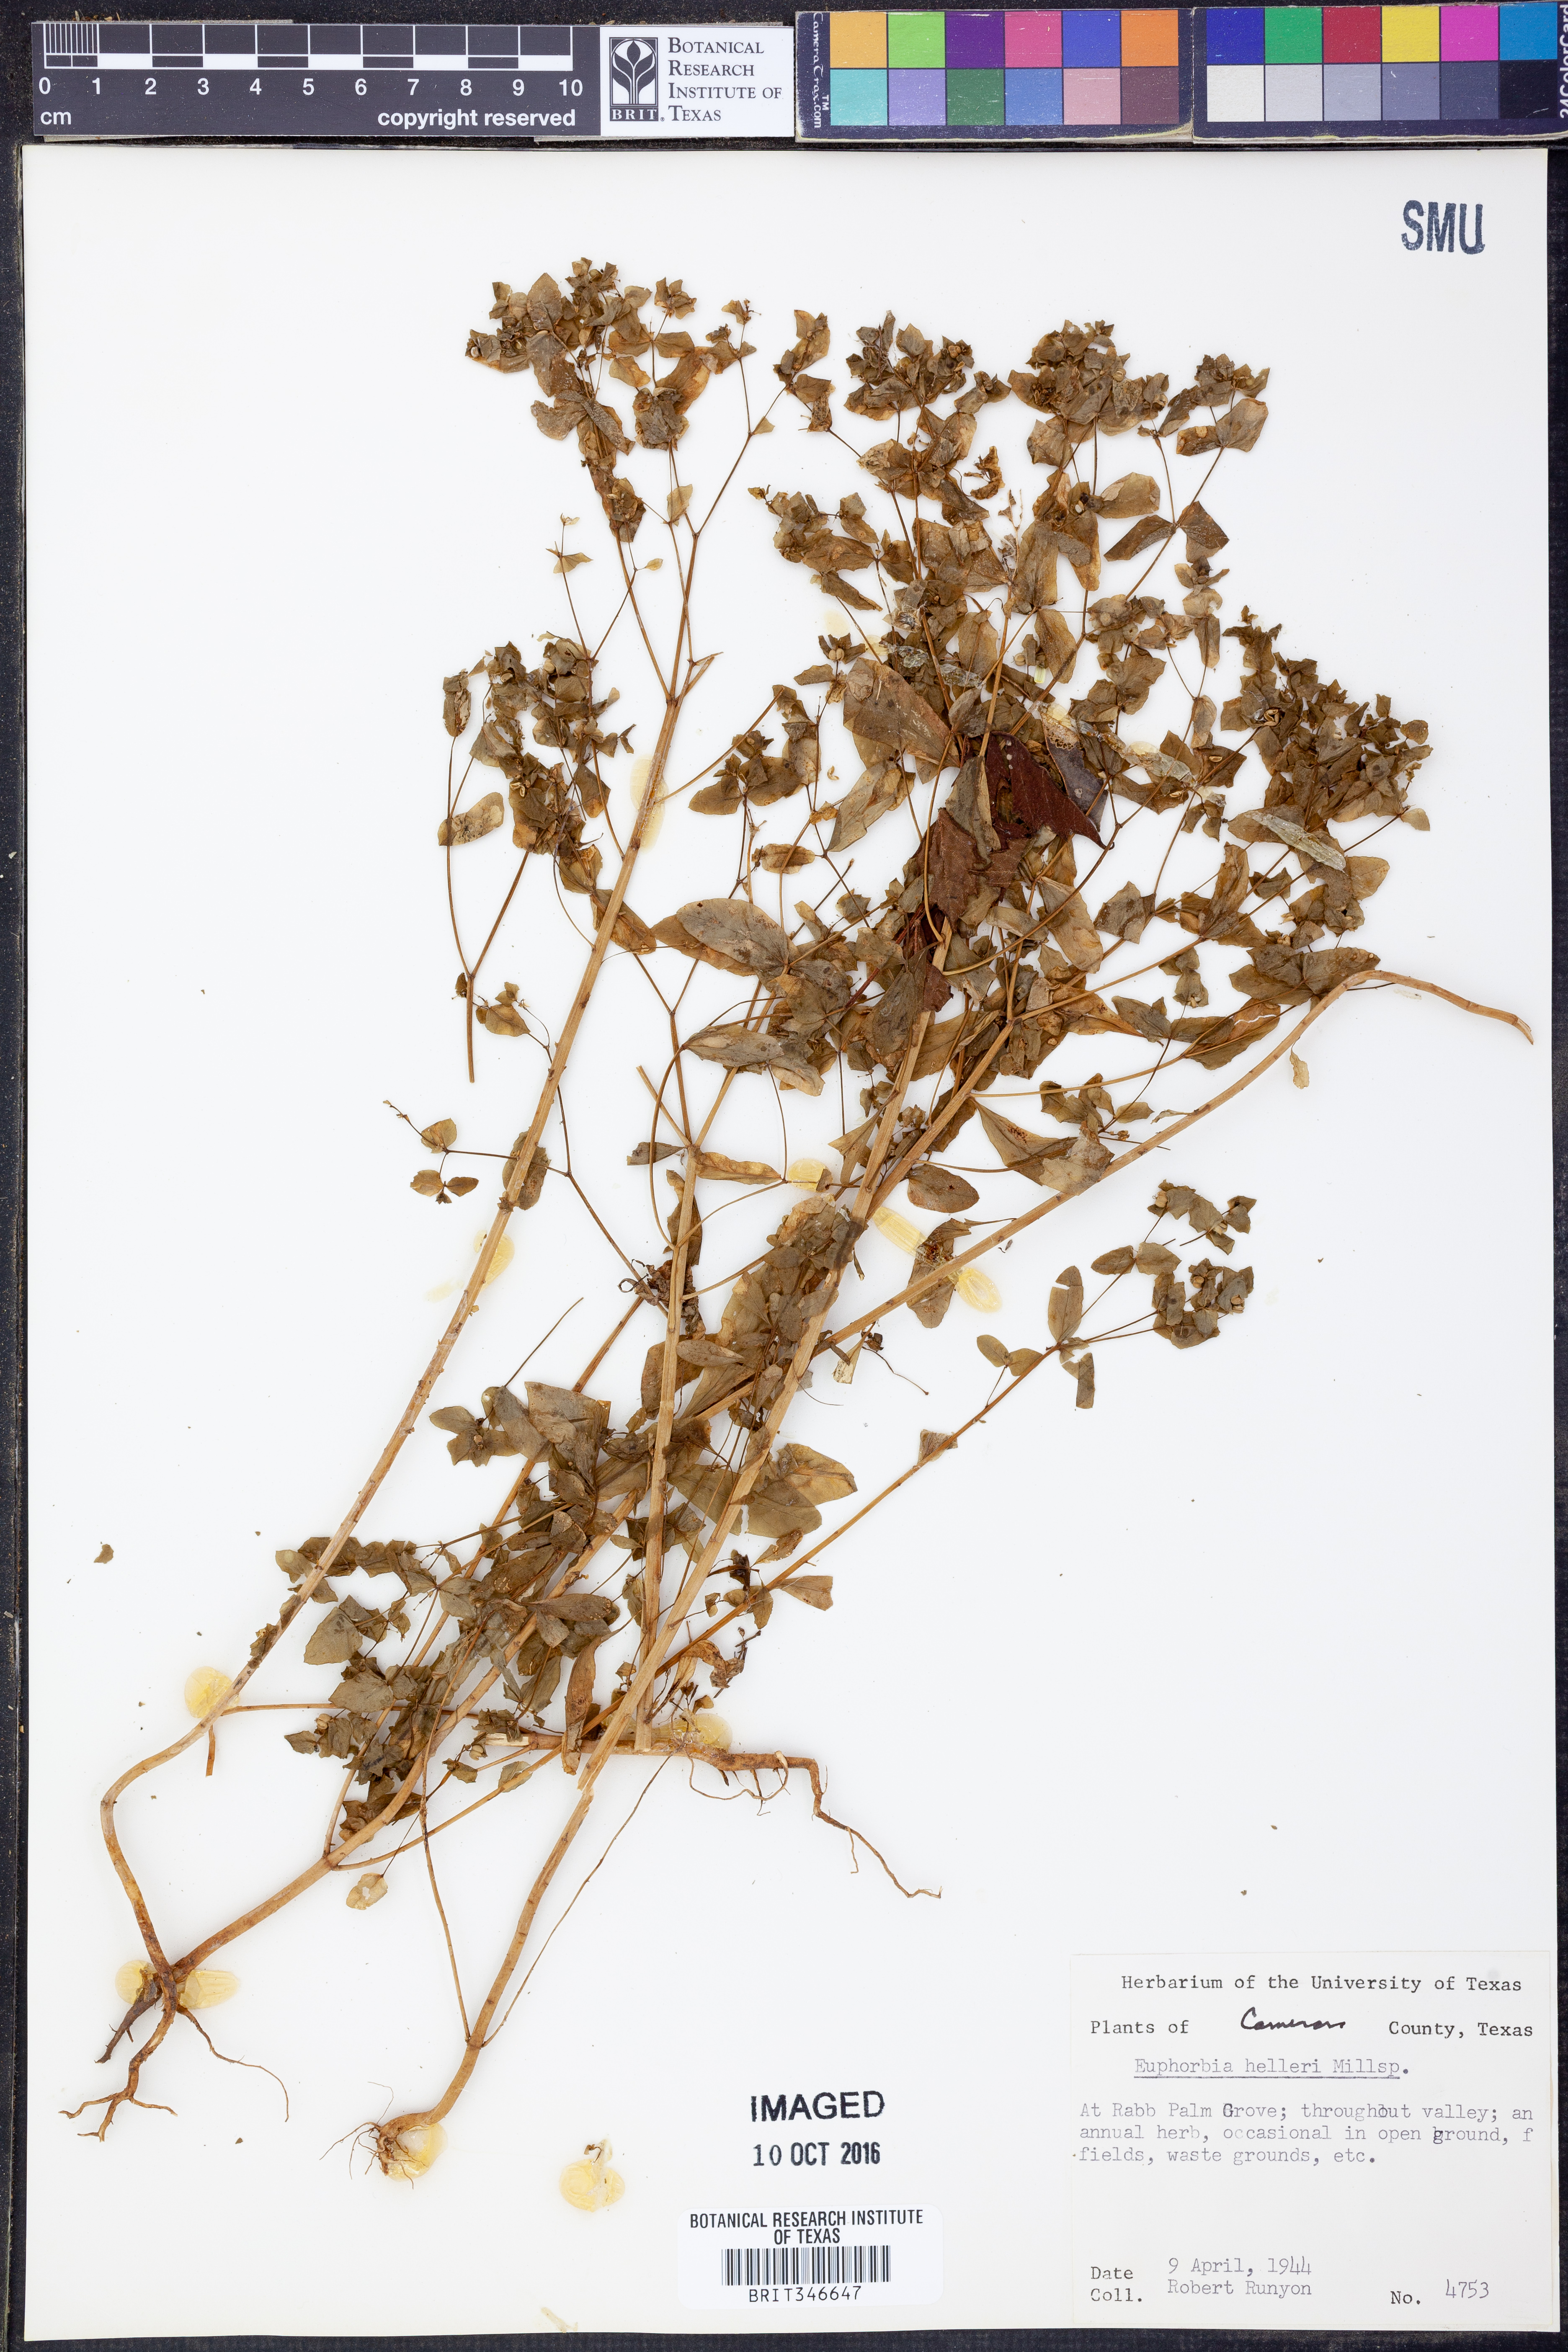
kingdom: Plantae
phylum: Tracheophyta
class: Magnoliopsida
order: Malpighiales
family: Euphorbiaceae
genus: Euphorbia
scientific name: Euphorbia helleri
